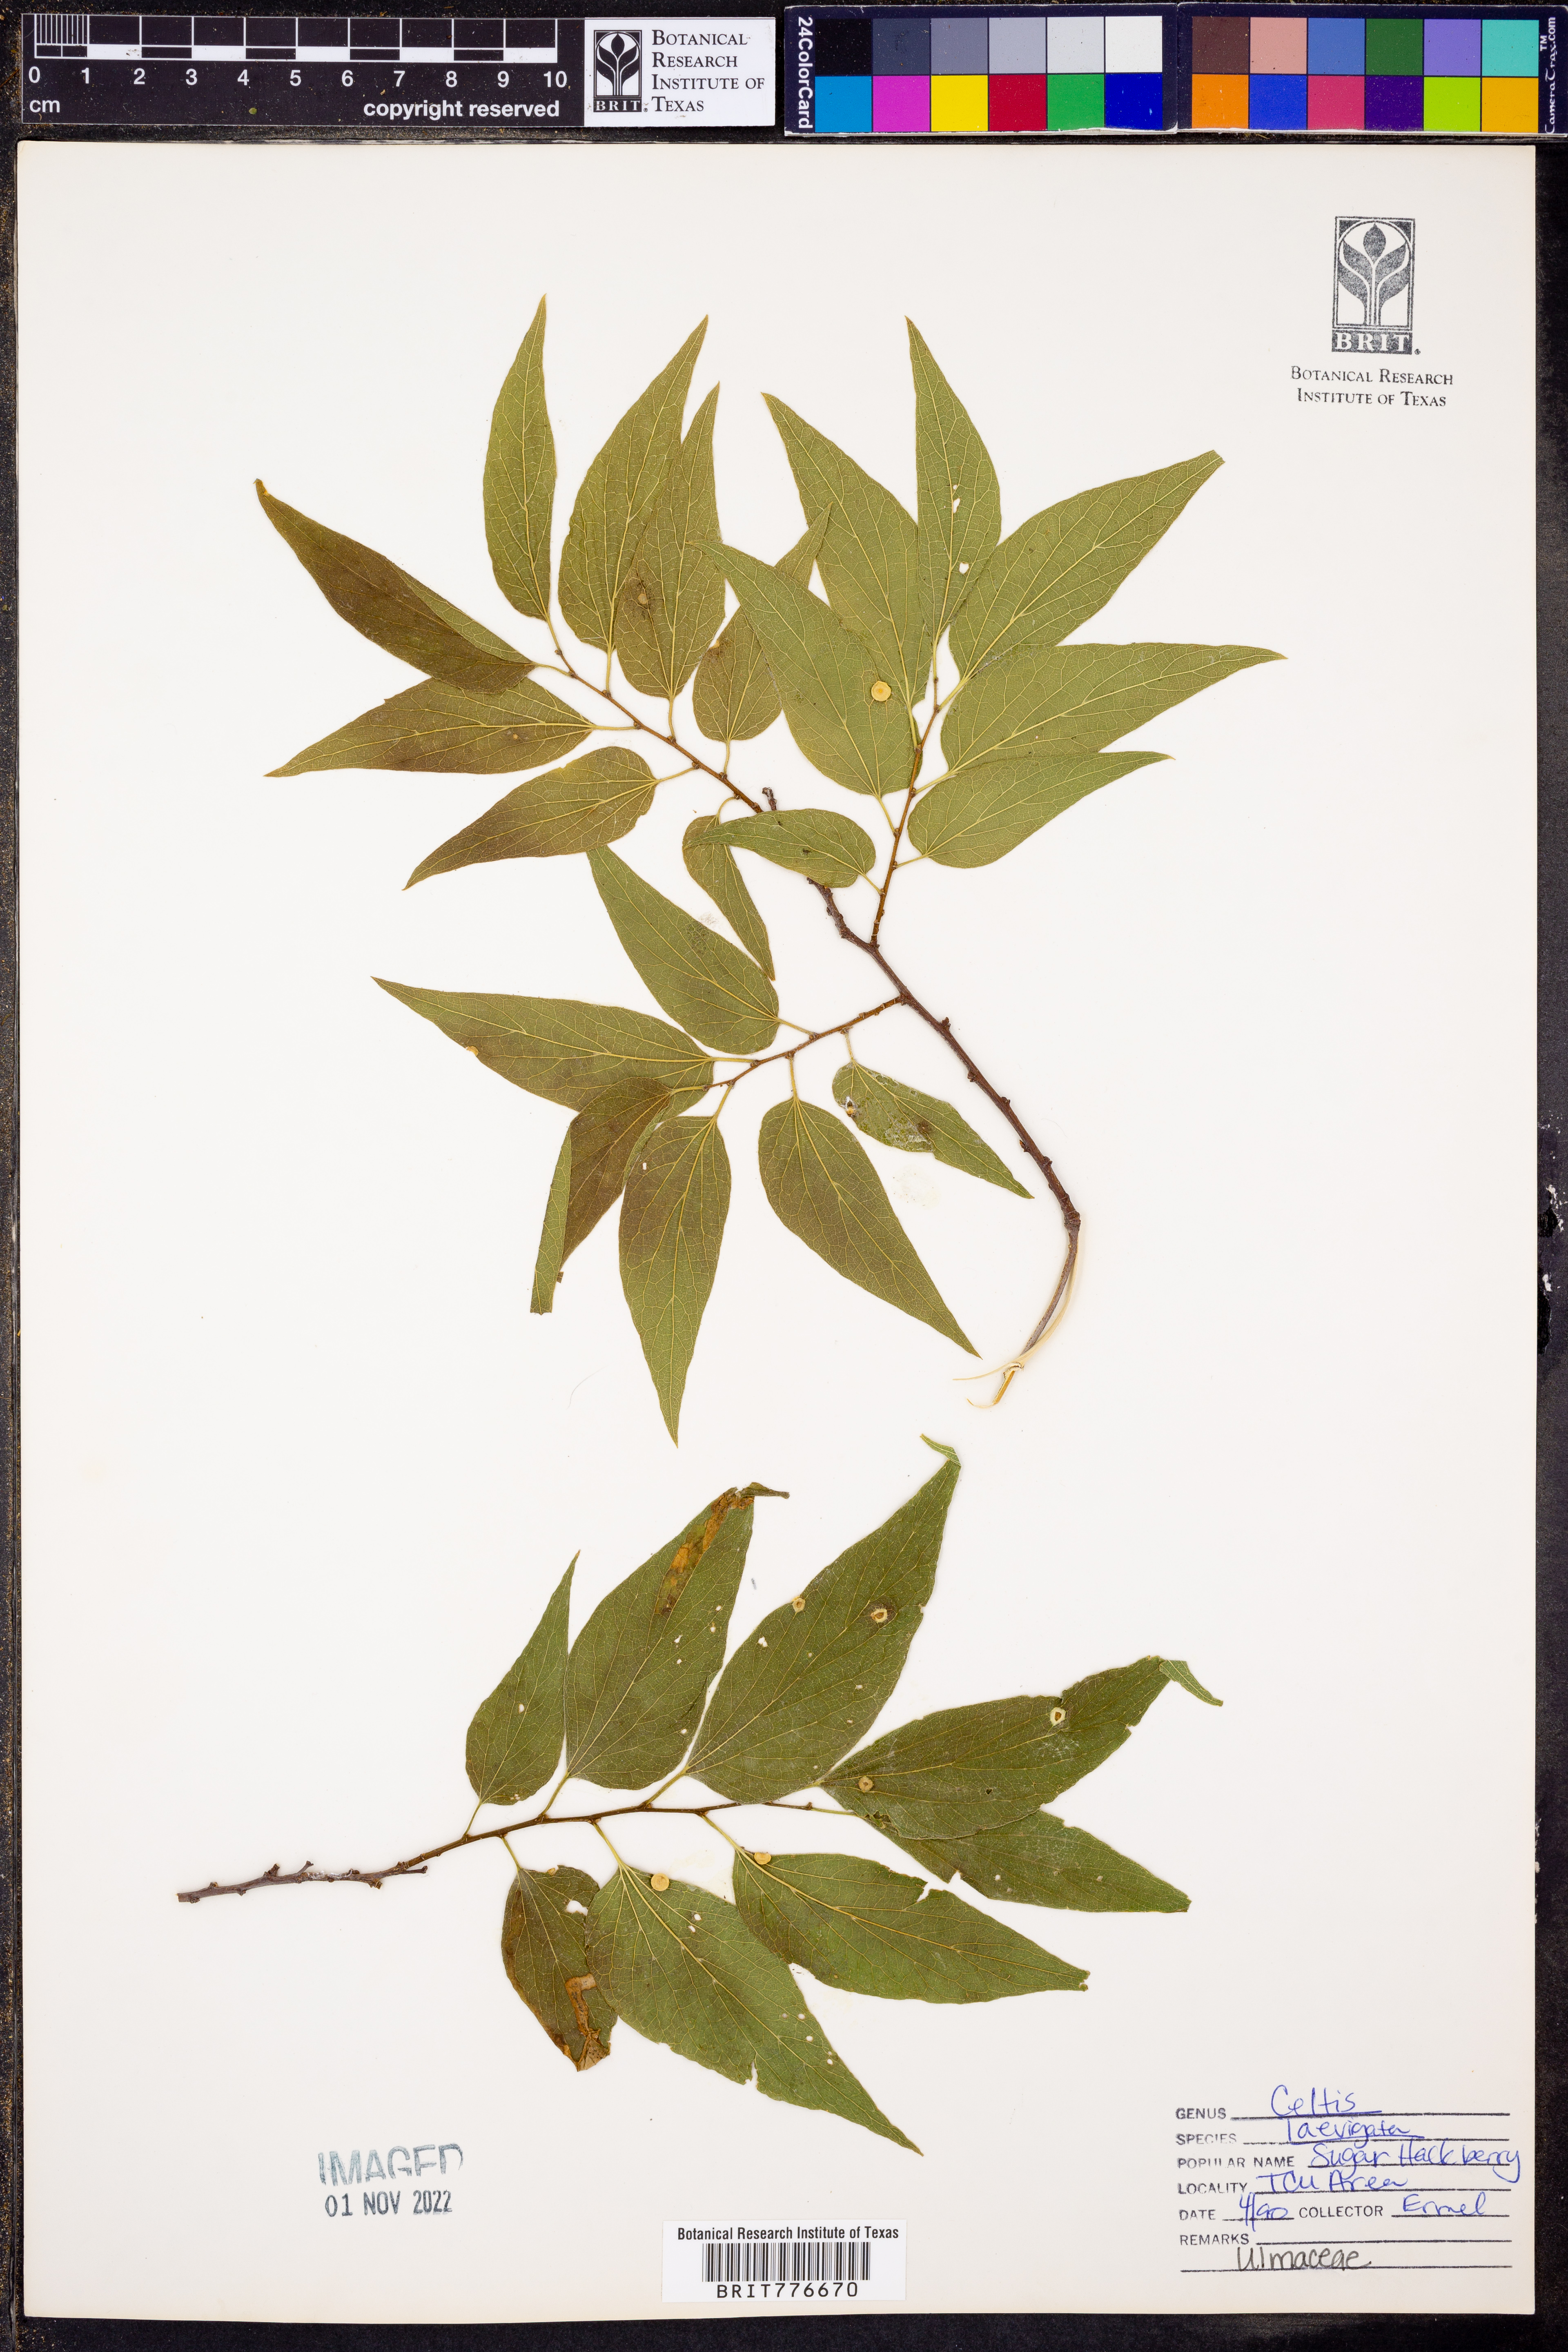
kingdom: Plantae
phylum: Tracheophyta
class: Magnoliopsida
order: Rosales
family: Cannabaceae
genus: Celtis
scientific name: Celtis laevigata
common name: Sugarberry
